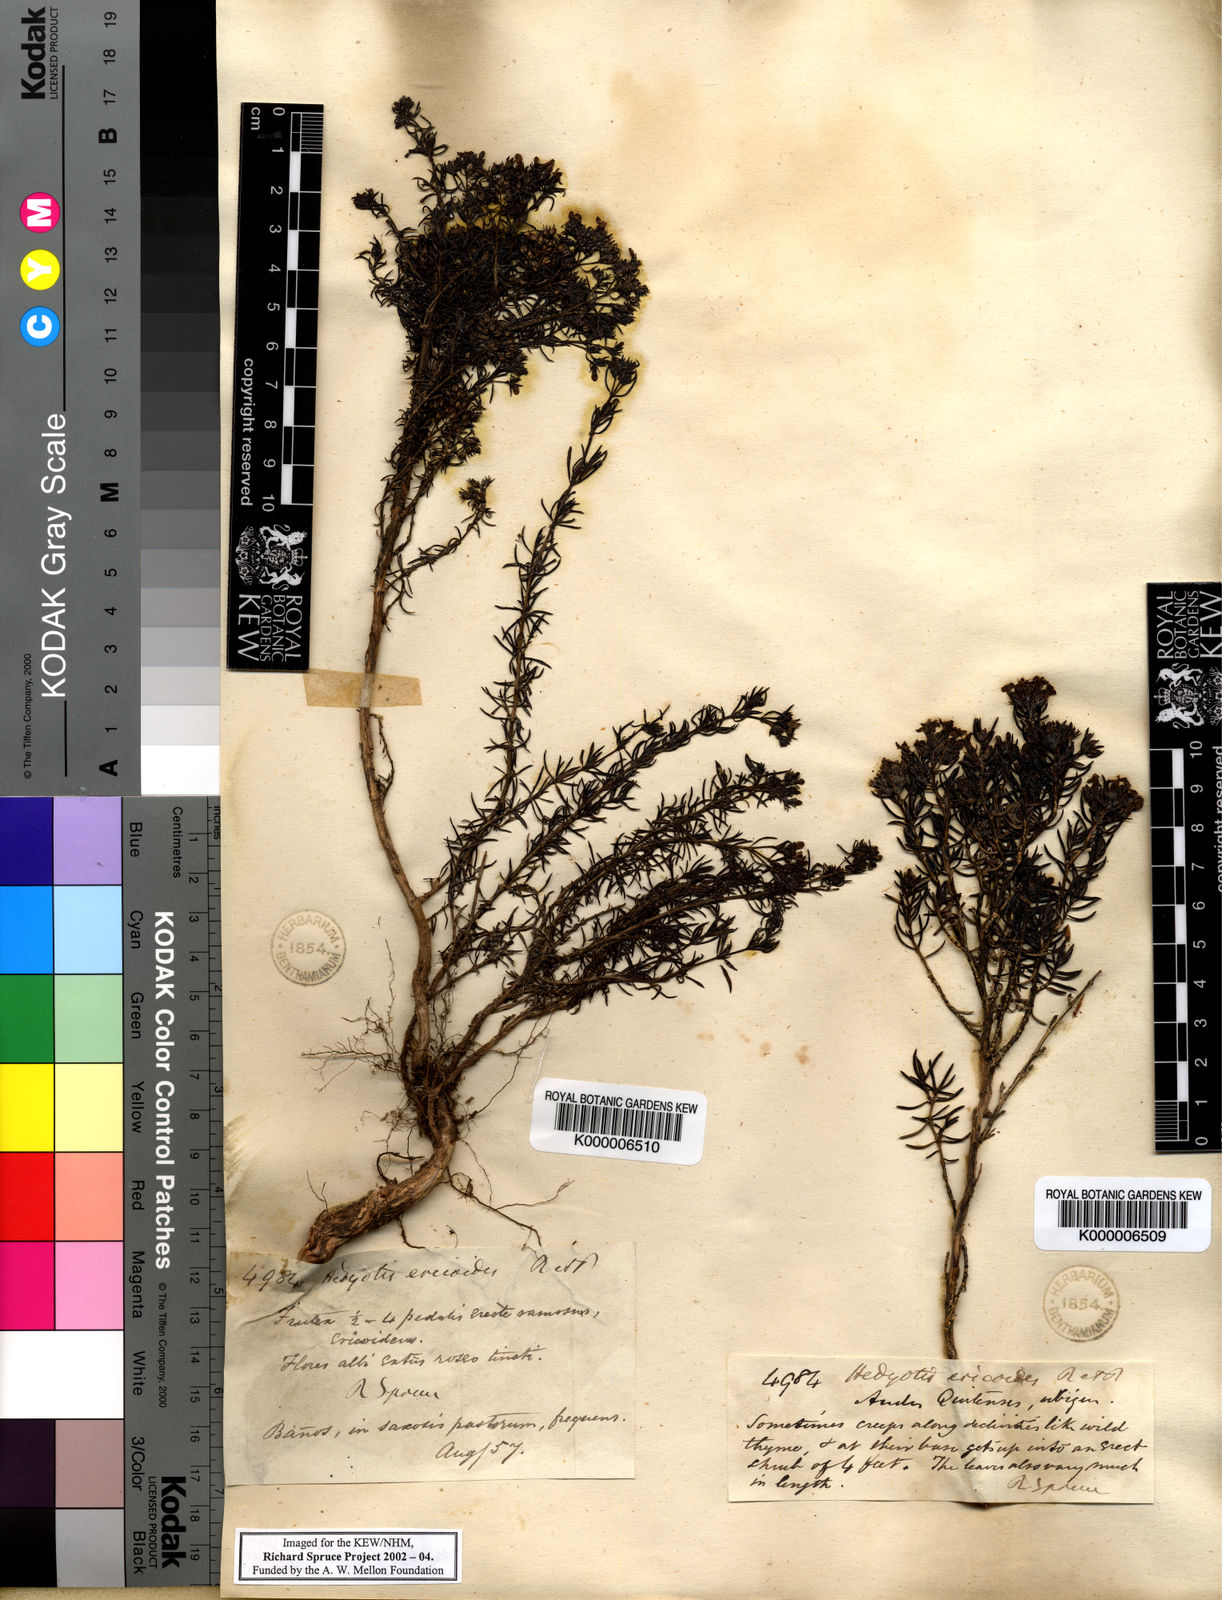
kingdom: Plantae
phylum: Tracheophyta
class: Magnoliopsida
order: Gentianales
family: Rubiaceae
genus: Arcytophyllum
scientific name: Arcytophyllum thymifolium
